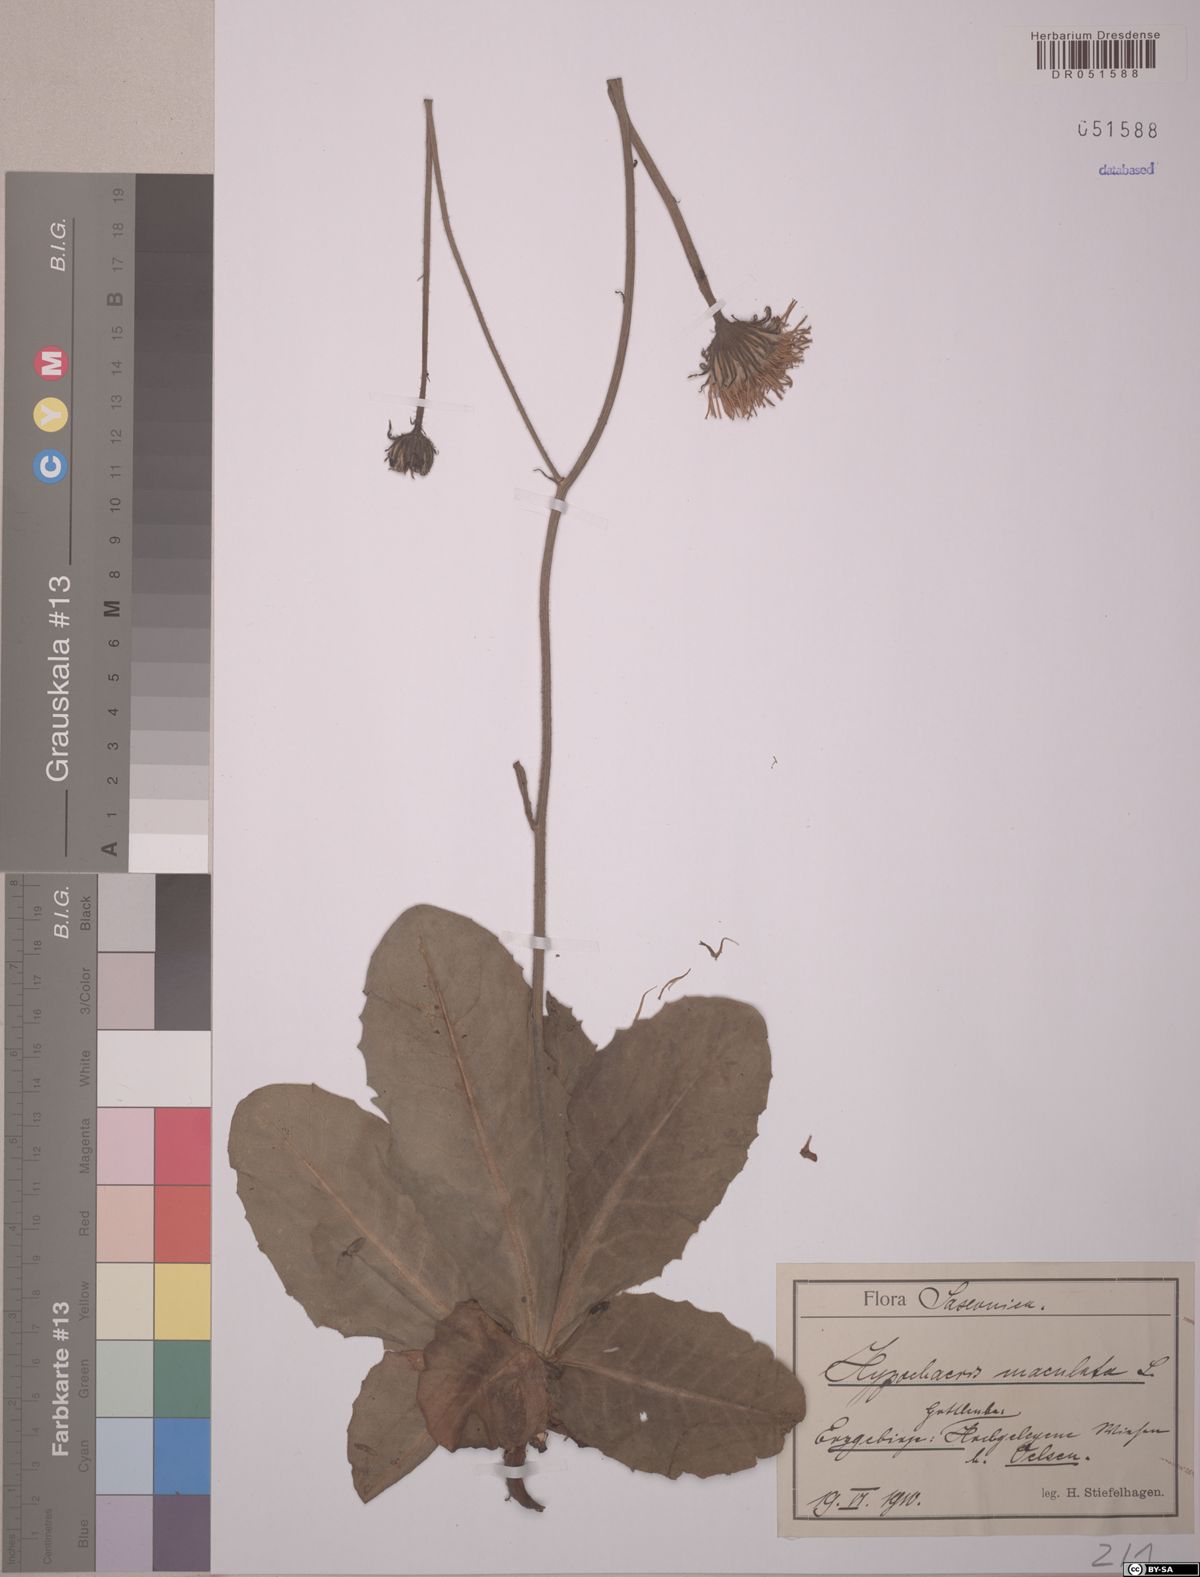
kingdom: Plantae
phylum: Tracheophyta
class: Magnoliopsida
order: Asterales
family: Asteraceae
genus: Trommsdorffia
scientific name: Trommsdorffia maculata
